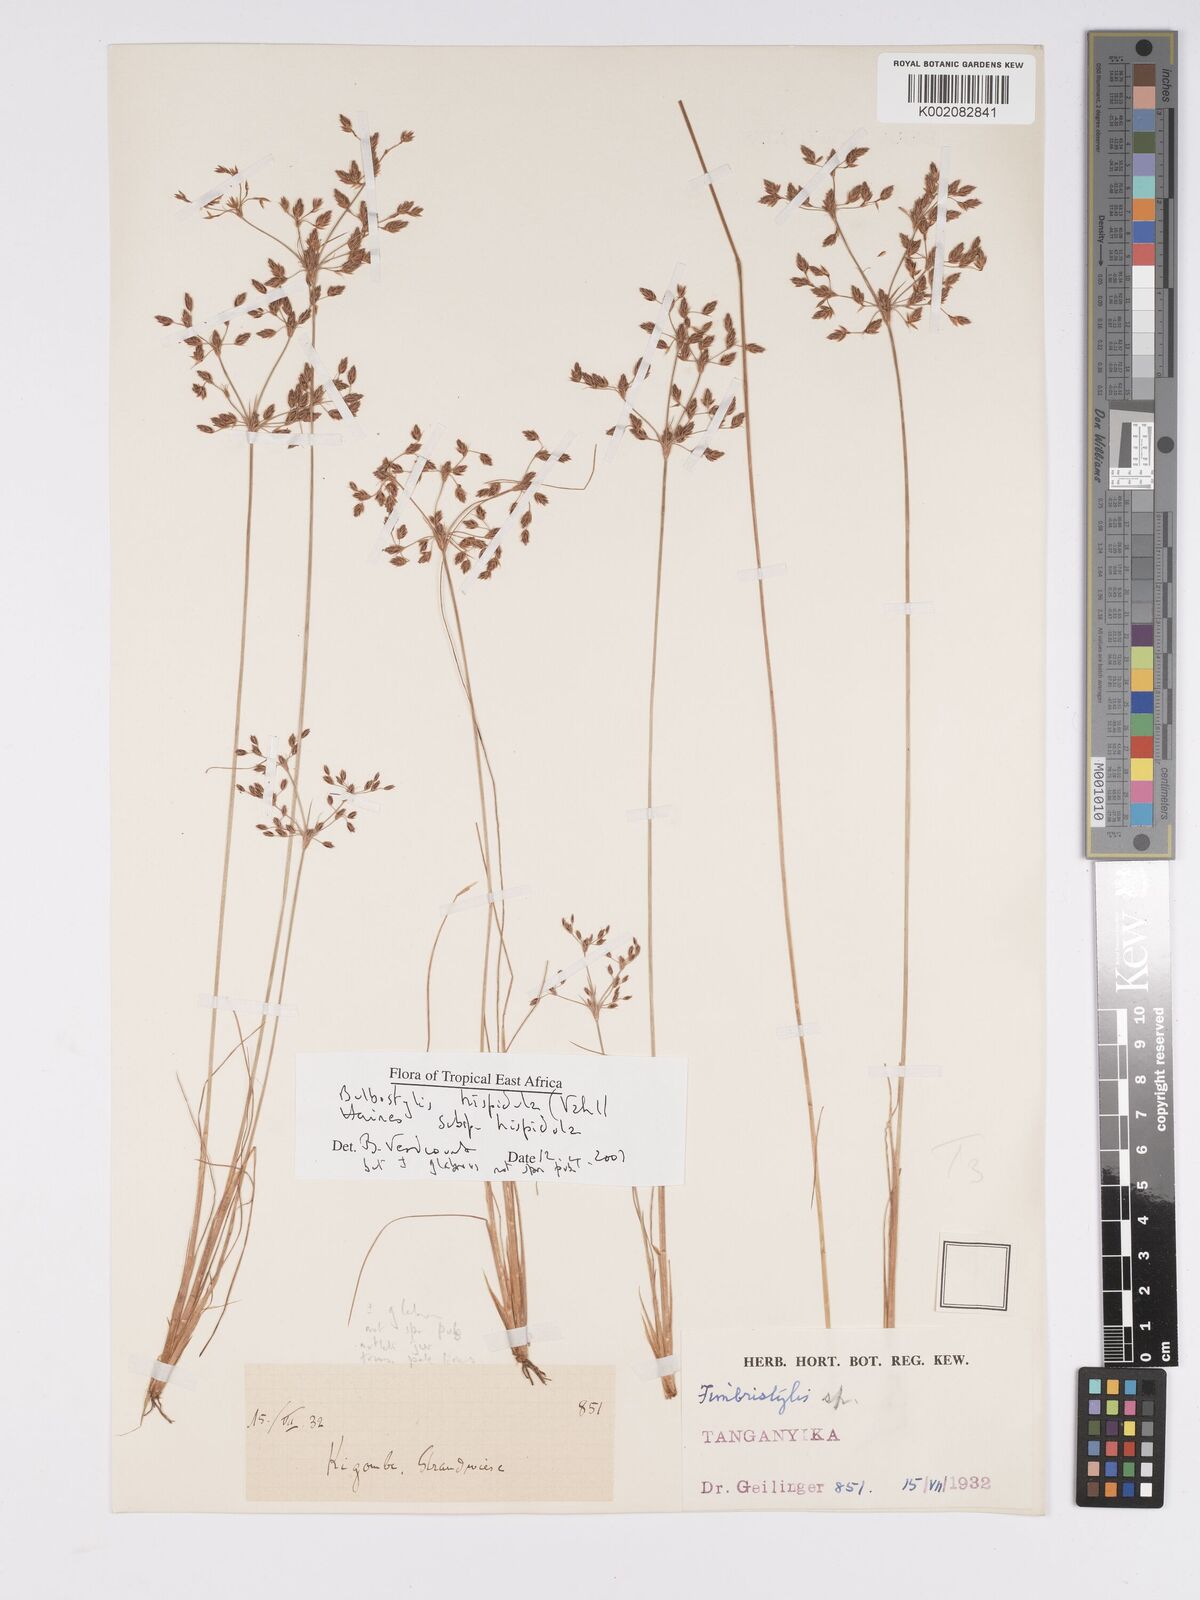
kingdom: Plantae
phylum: Tracheophyta
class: Liliopsida
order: Poales
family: Cyperaceae
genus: Bulbostylis
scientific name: Bulbostylis hispidula
